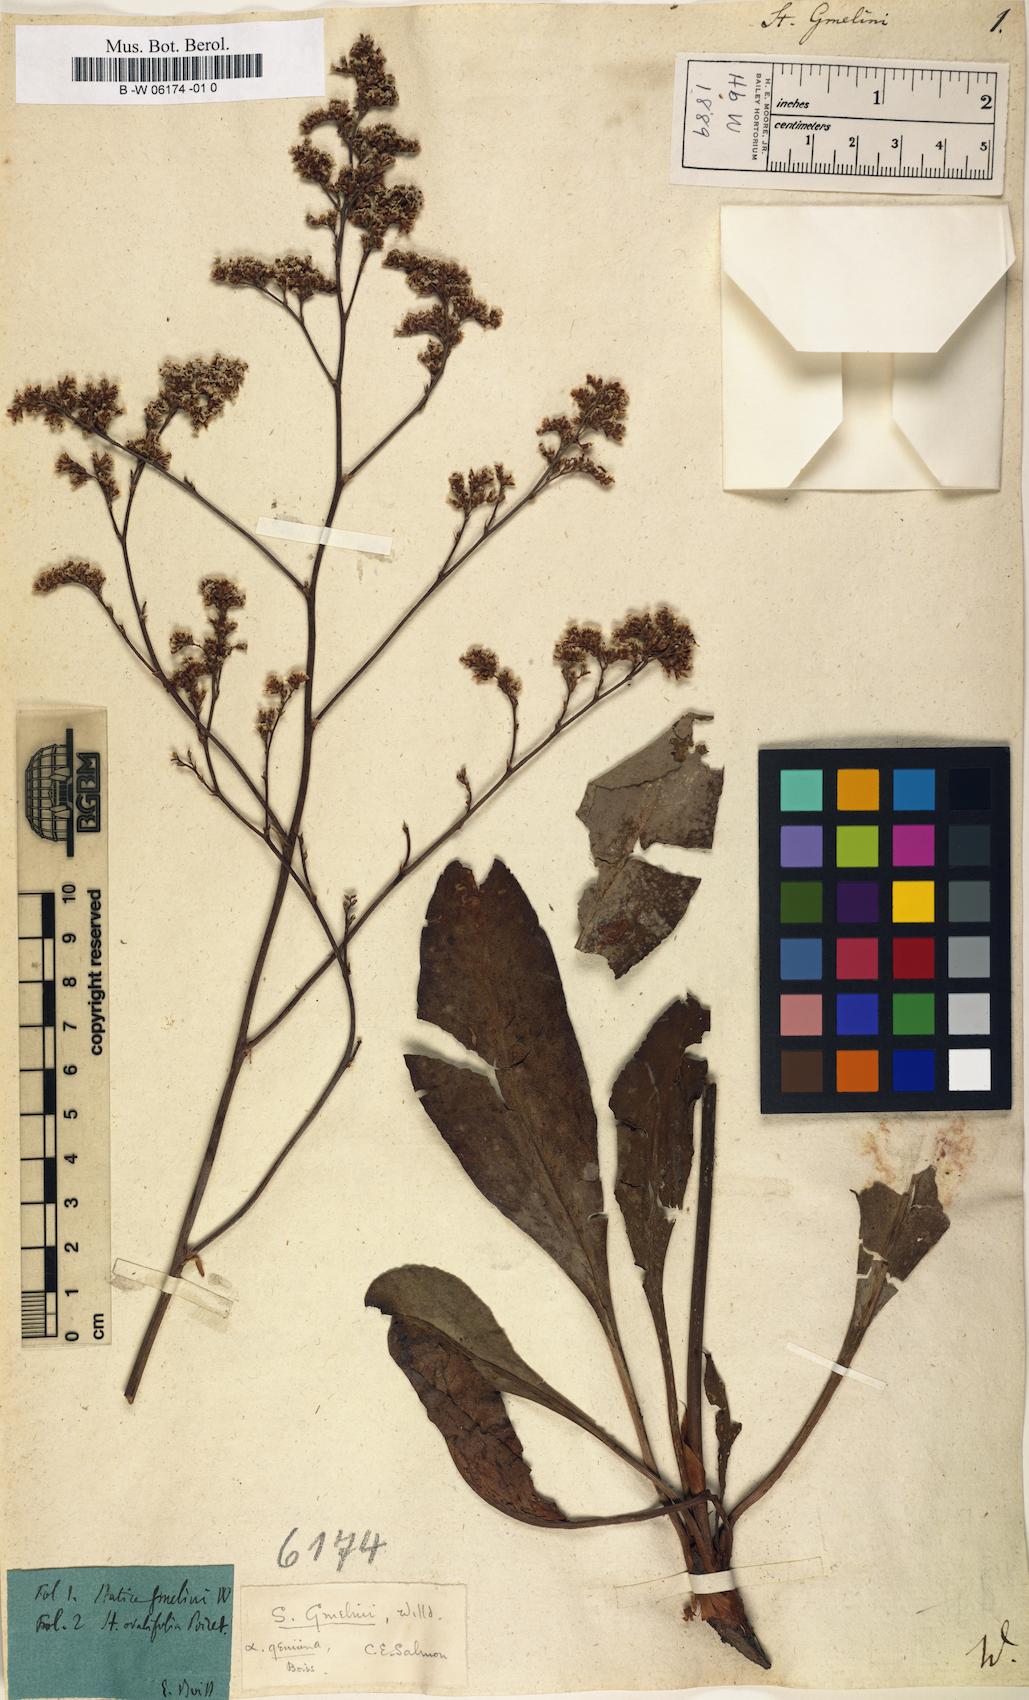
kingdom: Plantae
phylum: Tracheophyta
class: Magnoliopsida
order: Caryophyllales
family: Plumbaginaceae
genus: Limonium
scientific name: Limonium gmelini
